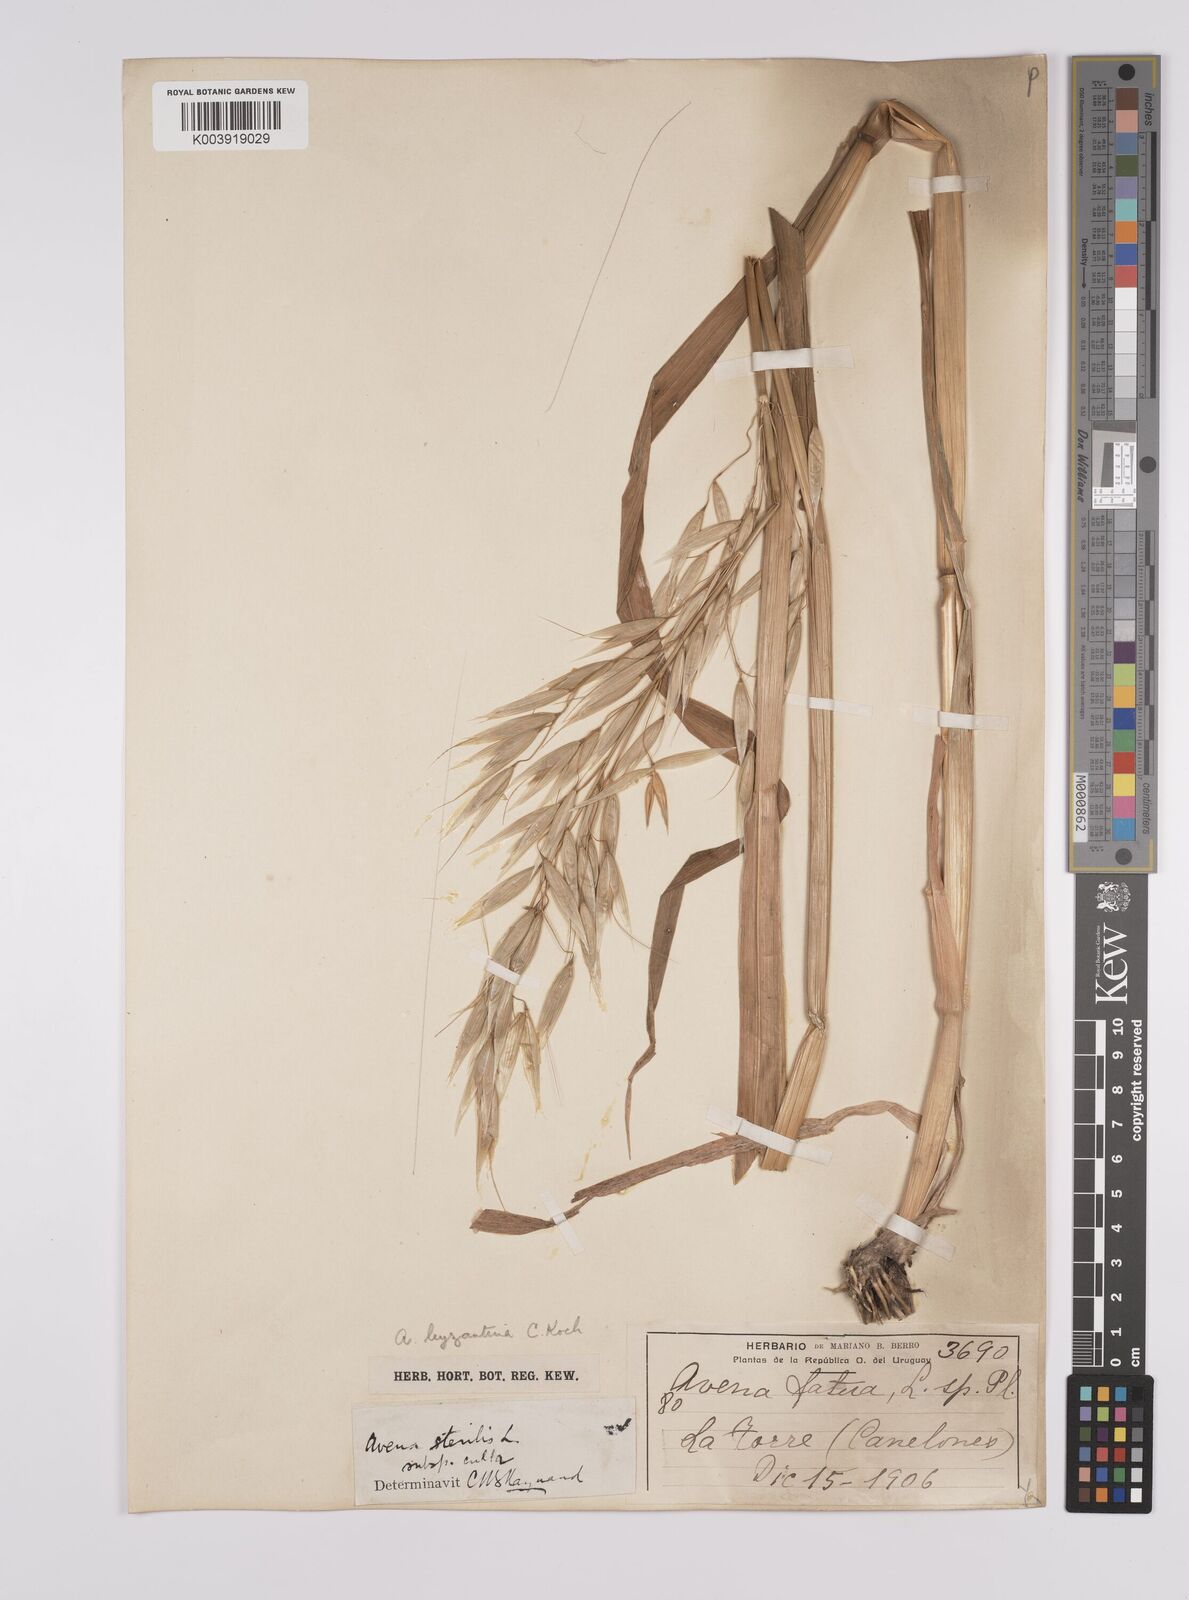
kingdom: Plantae
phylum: Tracheophyta
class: Liliopsida
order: Poales
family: Poaceae
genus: Avena
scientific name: Avena byzantina
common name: Algerian oat
